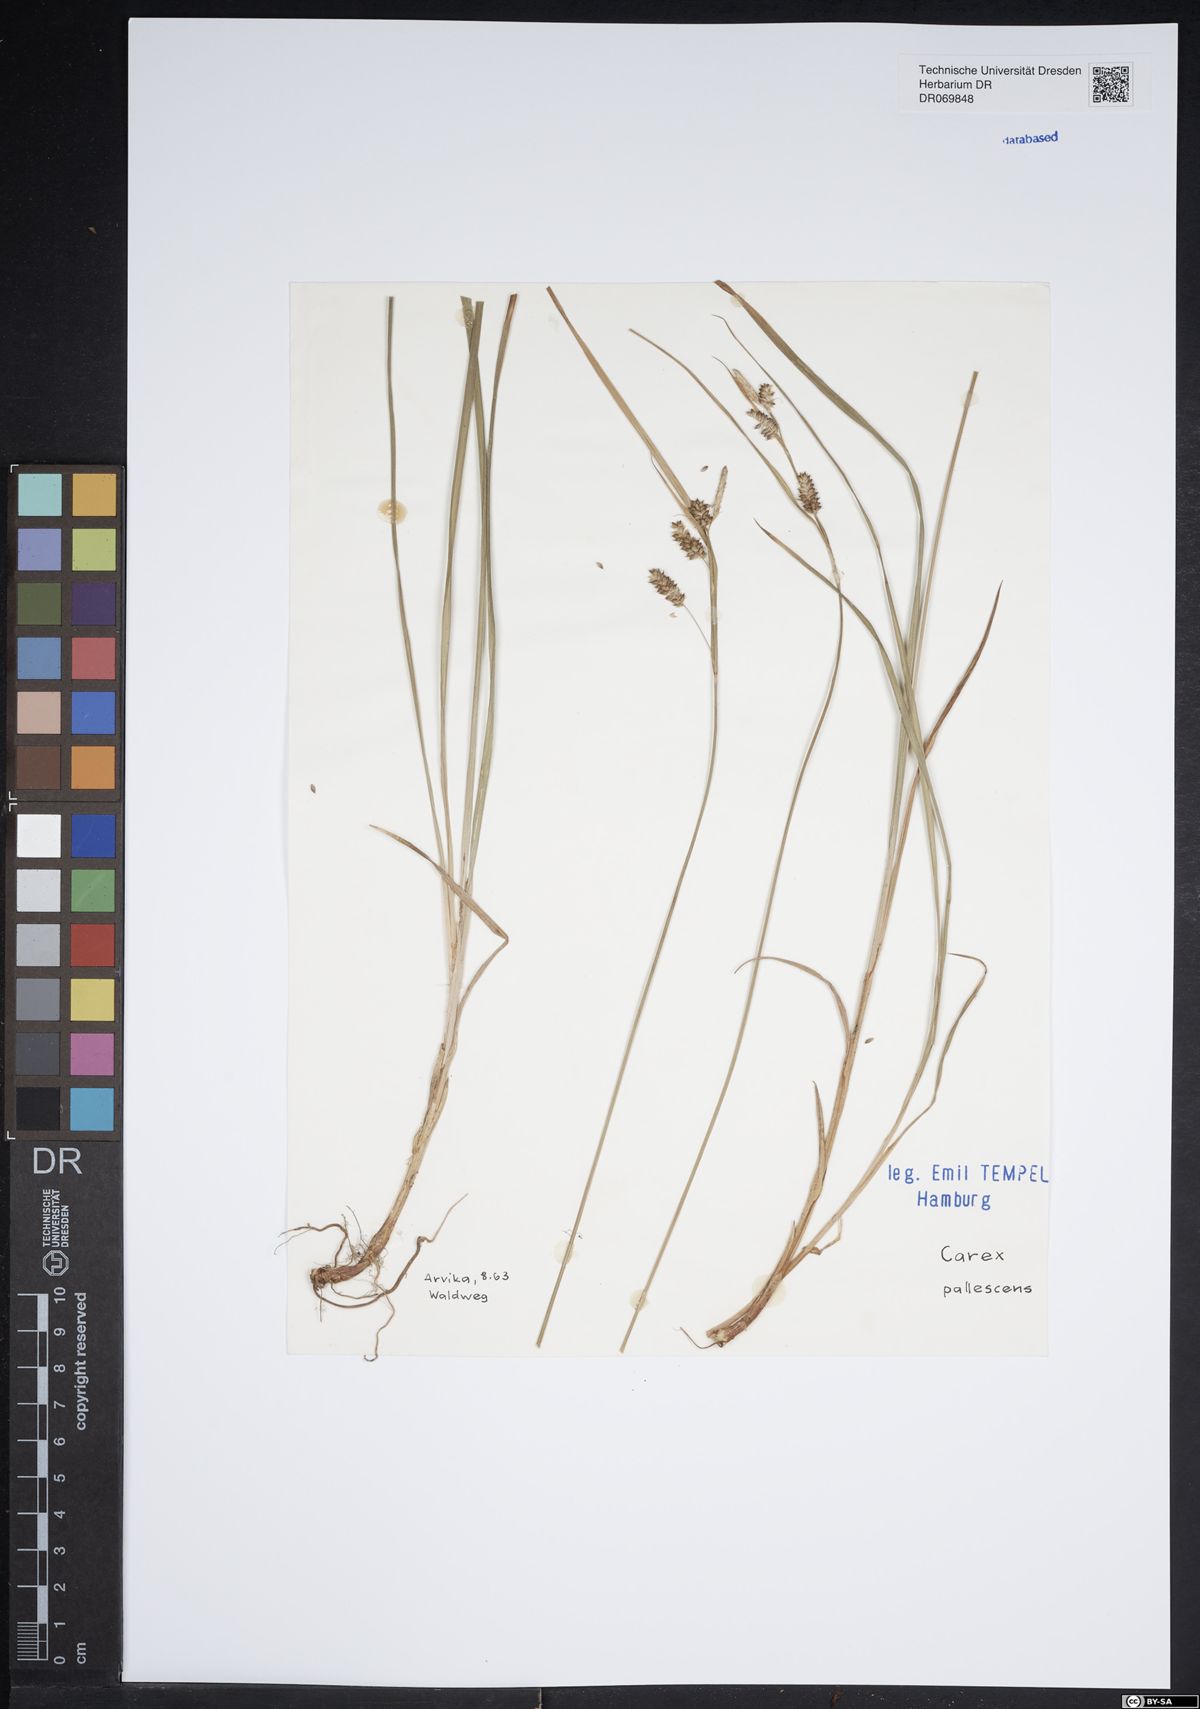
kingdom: Plantae
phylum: Tracheophyta
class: Liliopsida
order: Poales
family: Cyperaceae
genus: Carex
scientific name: Carex pallescens
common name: Pale sedge
